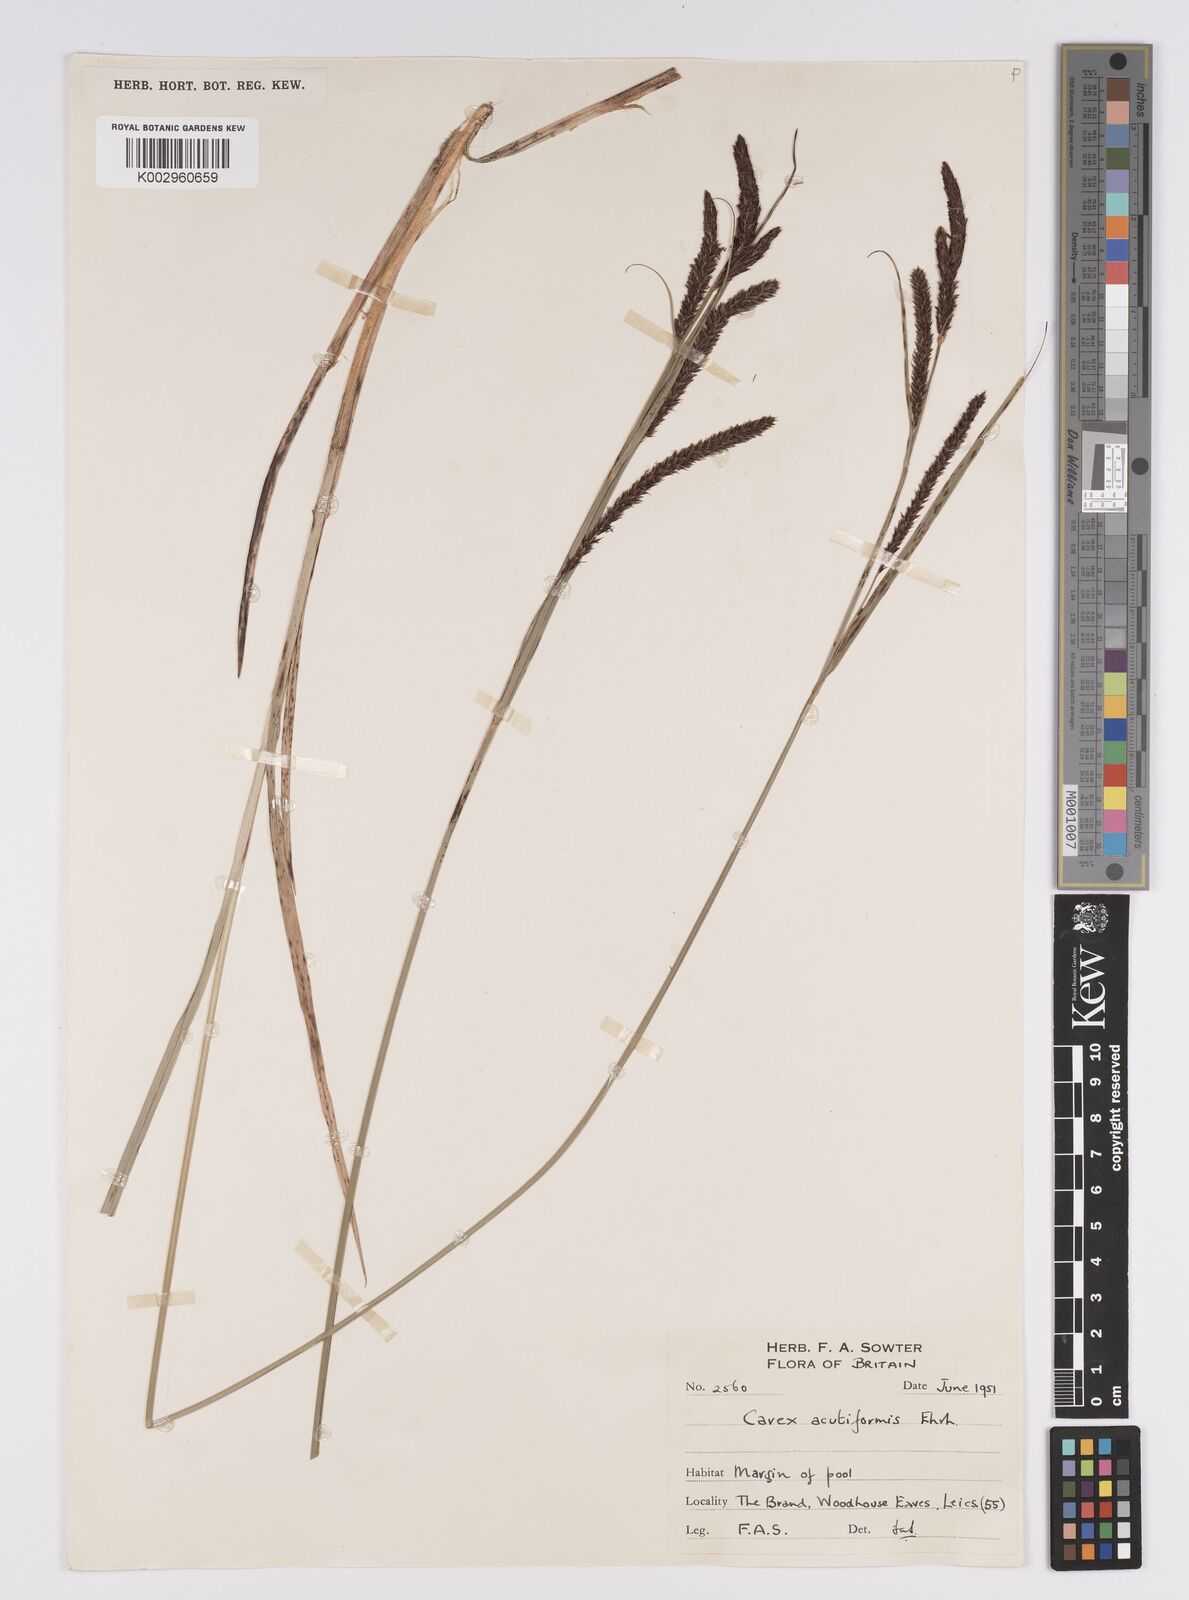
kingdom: Plantae
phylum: Tracheophyta
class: Liliopsida
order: Poales
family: Cyperaceae
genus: Carex
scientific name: Carex acutiformis
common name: Lesser pond-sedge
